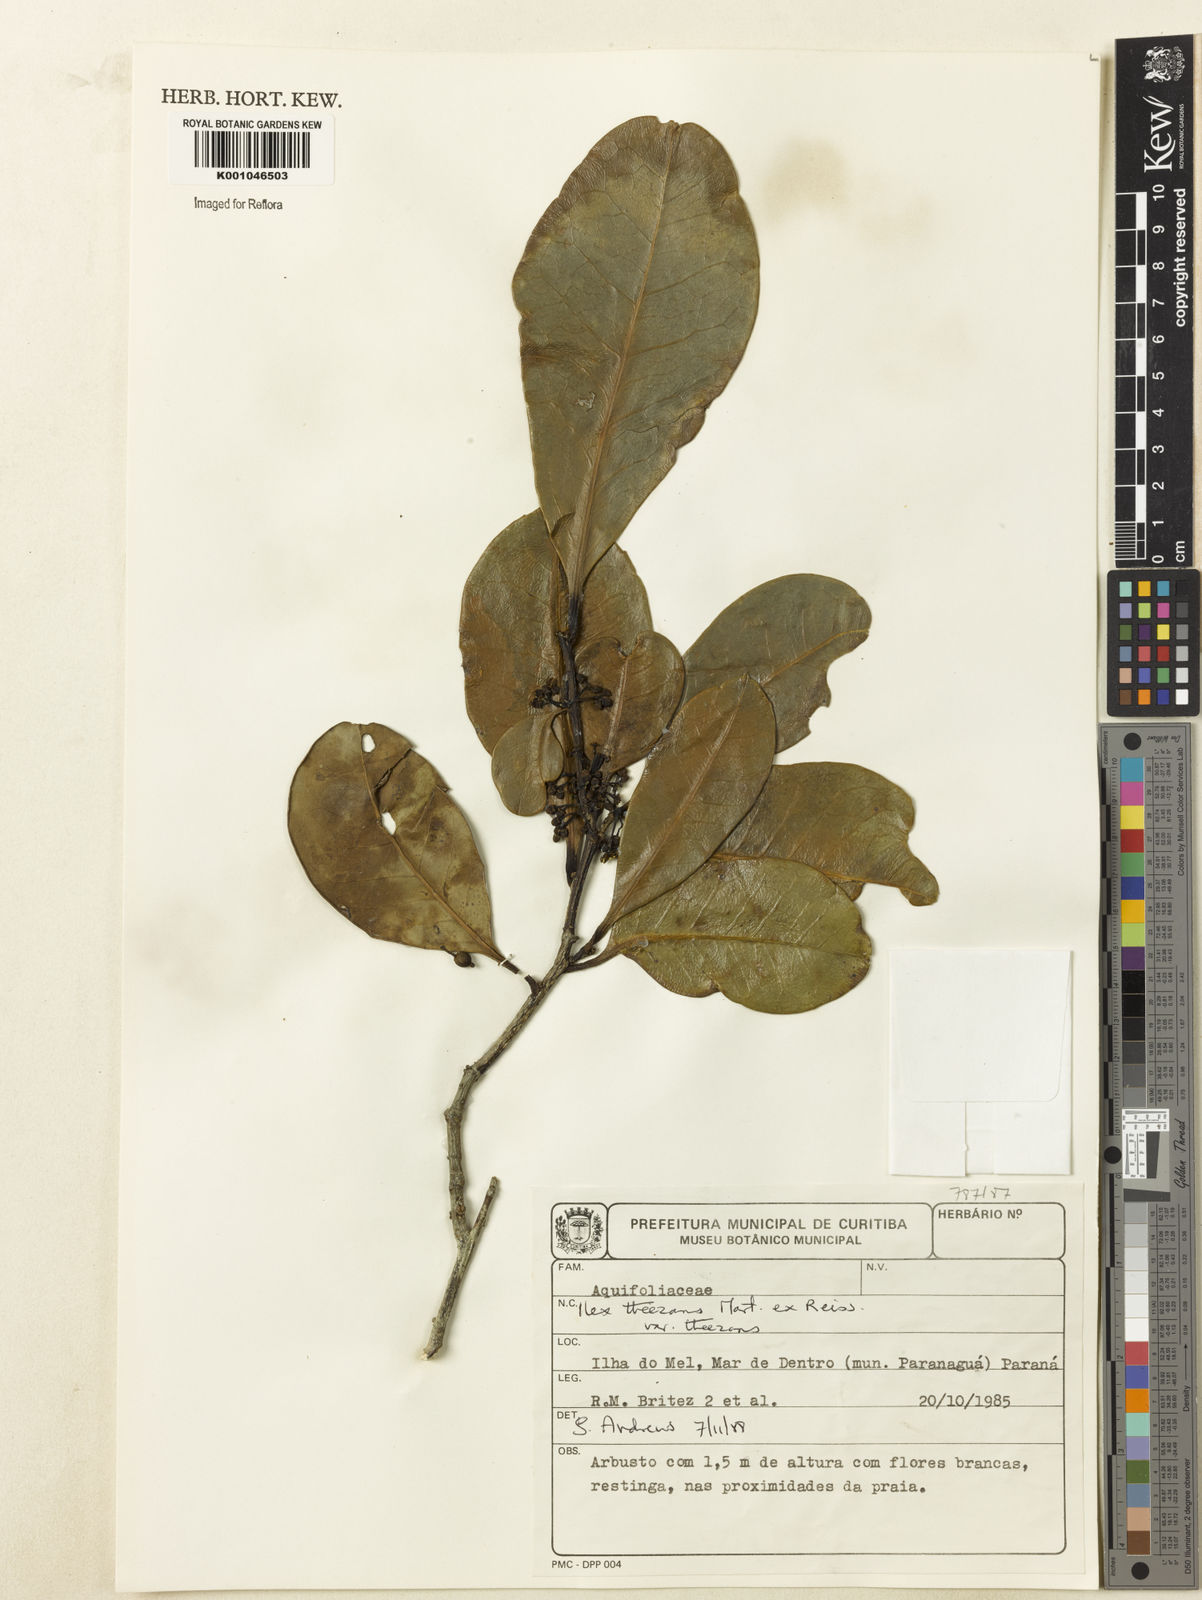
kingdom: Plantae
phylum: Tracheophyta
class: Magnoliopsida
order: Aquifoliales
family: Aquifoliaceae
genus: Ilex
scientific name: Ilex paraguariensis
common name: Paraguay tea
